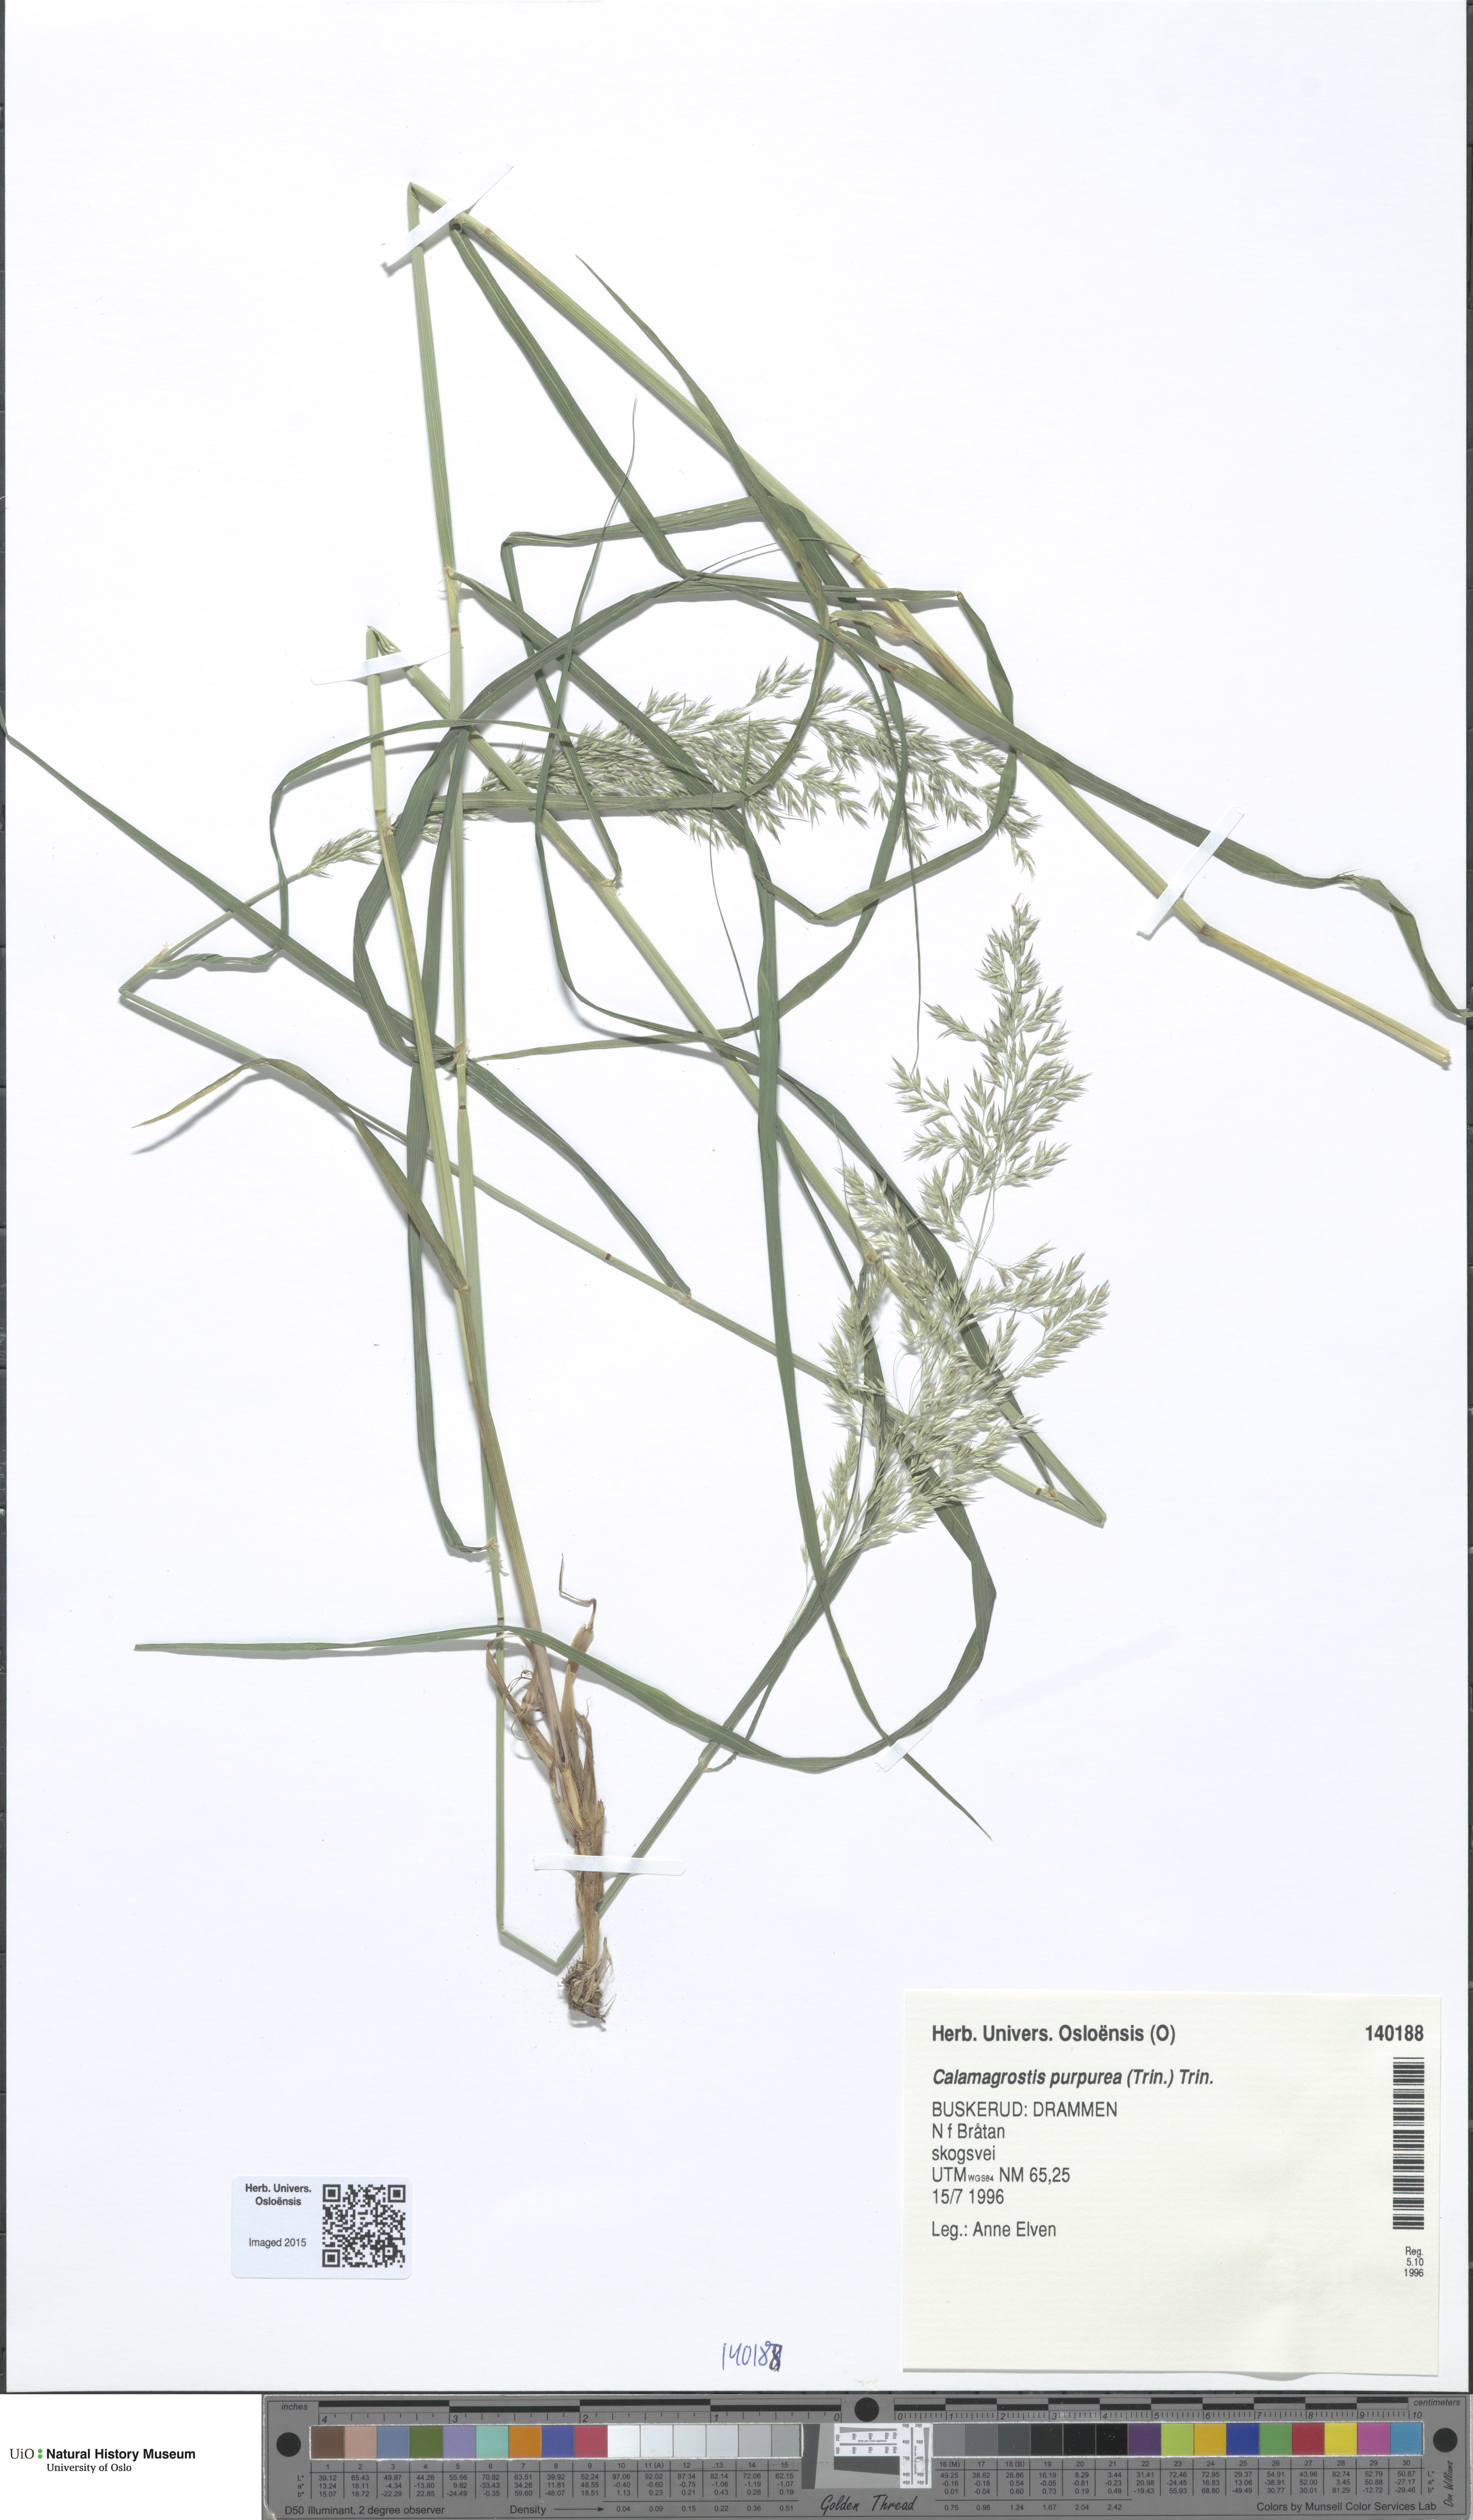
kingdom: Plantae
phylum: Tracheophyta
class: Liliopsida
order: Poales
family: Poaceae
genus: Calamagrostis
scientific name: Calamagrostis purpurea
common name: Scandinavian small-reed
